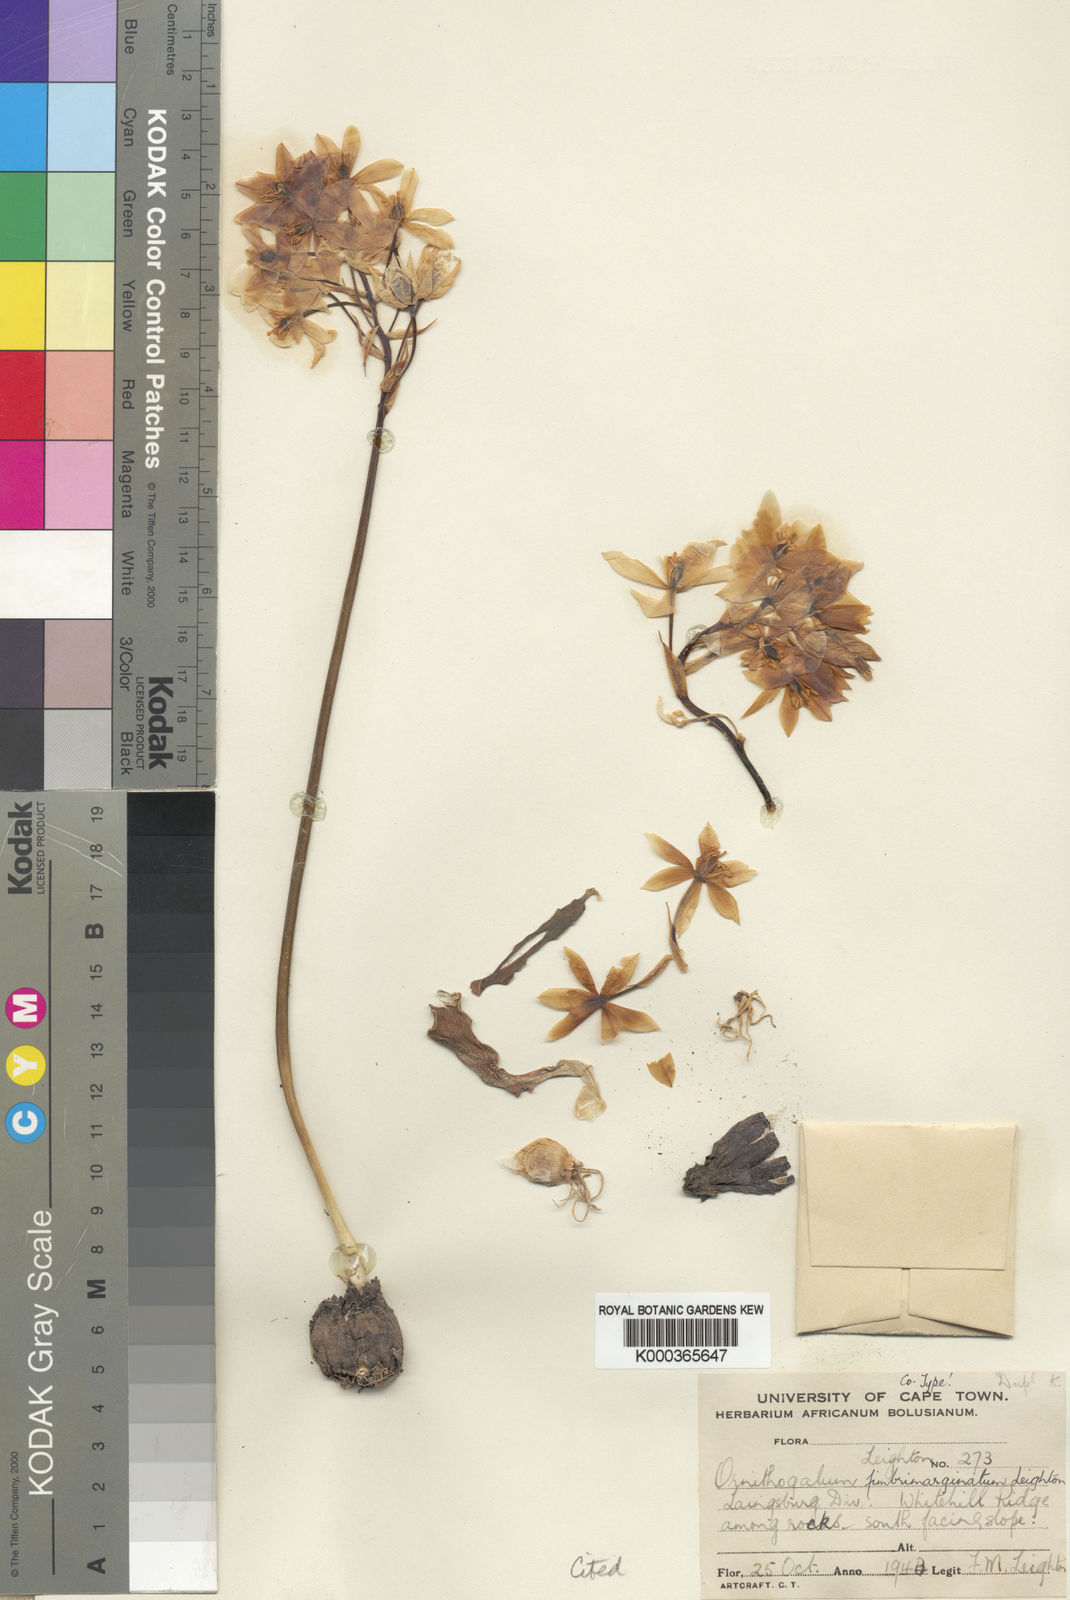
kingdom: Plantae
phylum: Tracheophyta
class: Liliopsida
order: Asparagales
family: Asparagaceae
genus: Ornithogalum
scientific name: Ornithogalum fimbrimarginatum
